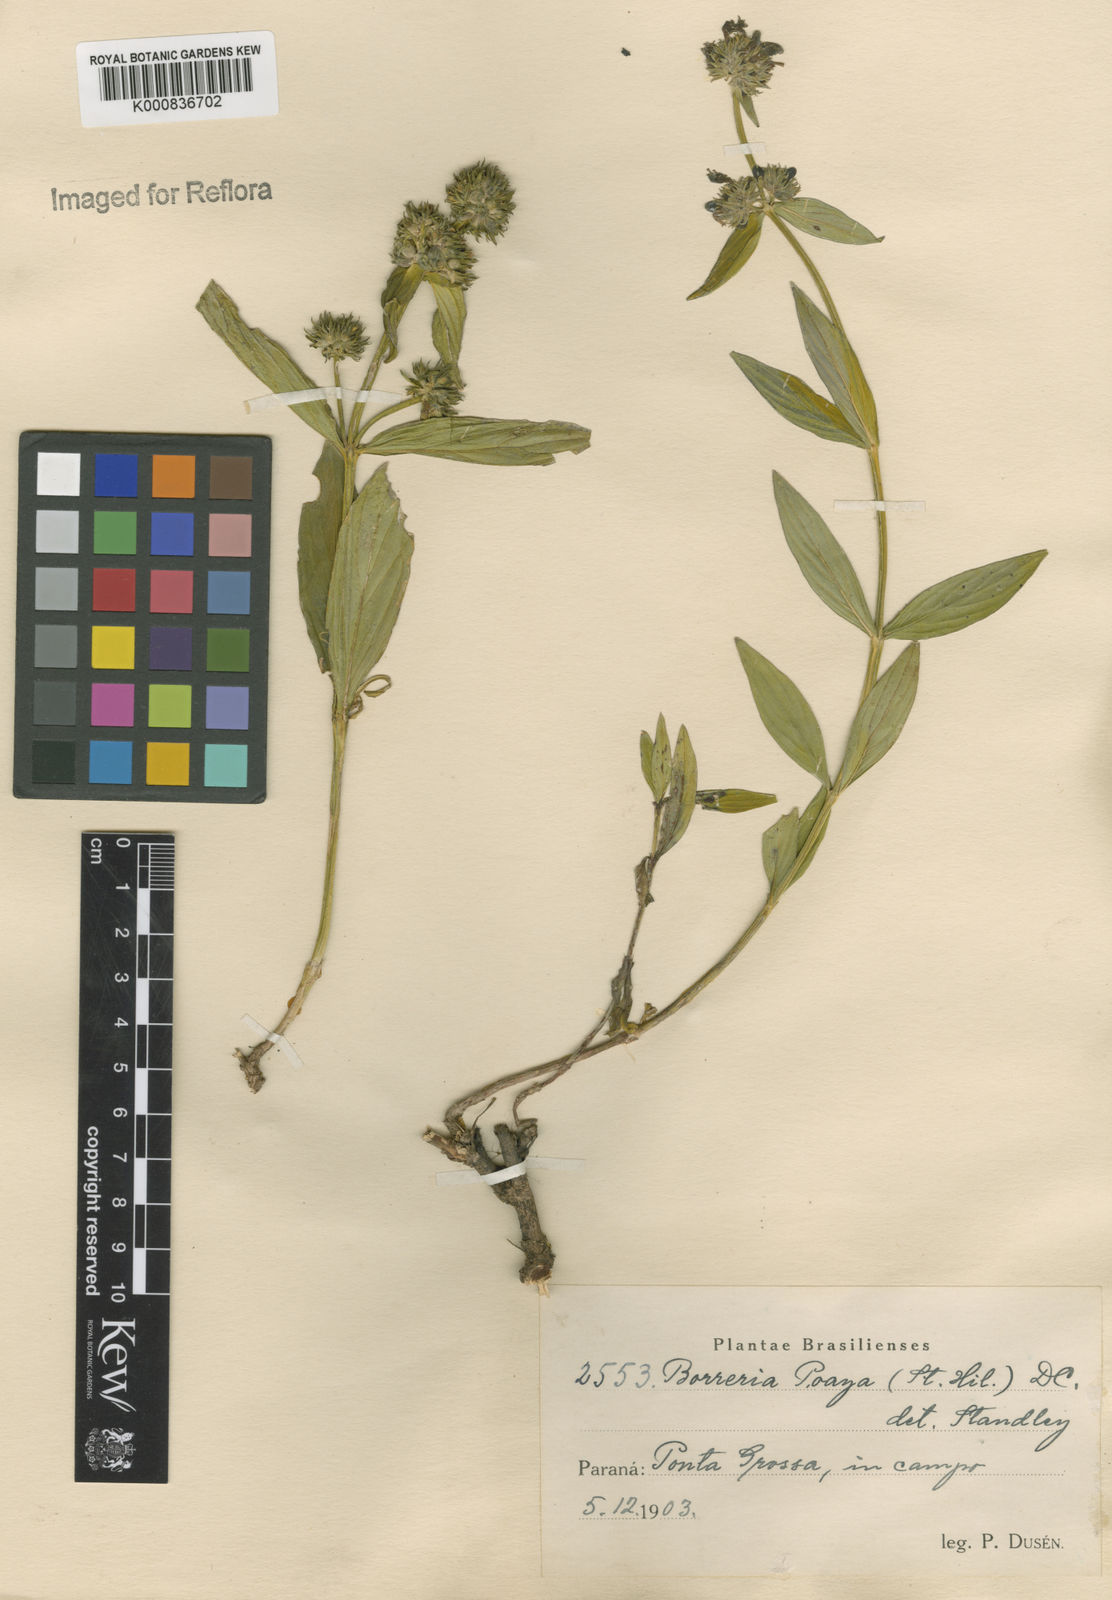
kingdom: Plantae
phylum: Tracheophyta
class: Magnoliopsida
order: Gentianales
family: Rubiaceae
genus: Spermacoce
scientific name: Spermacoce poaya
